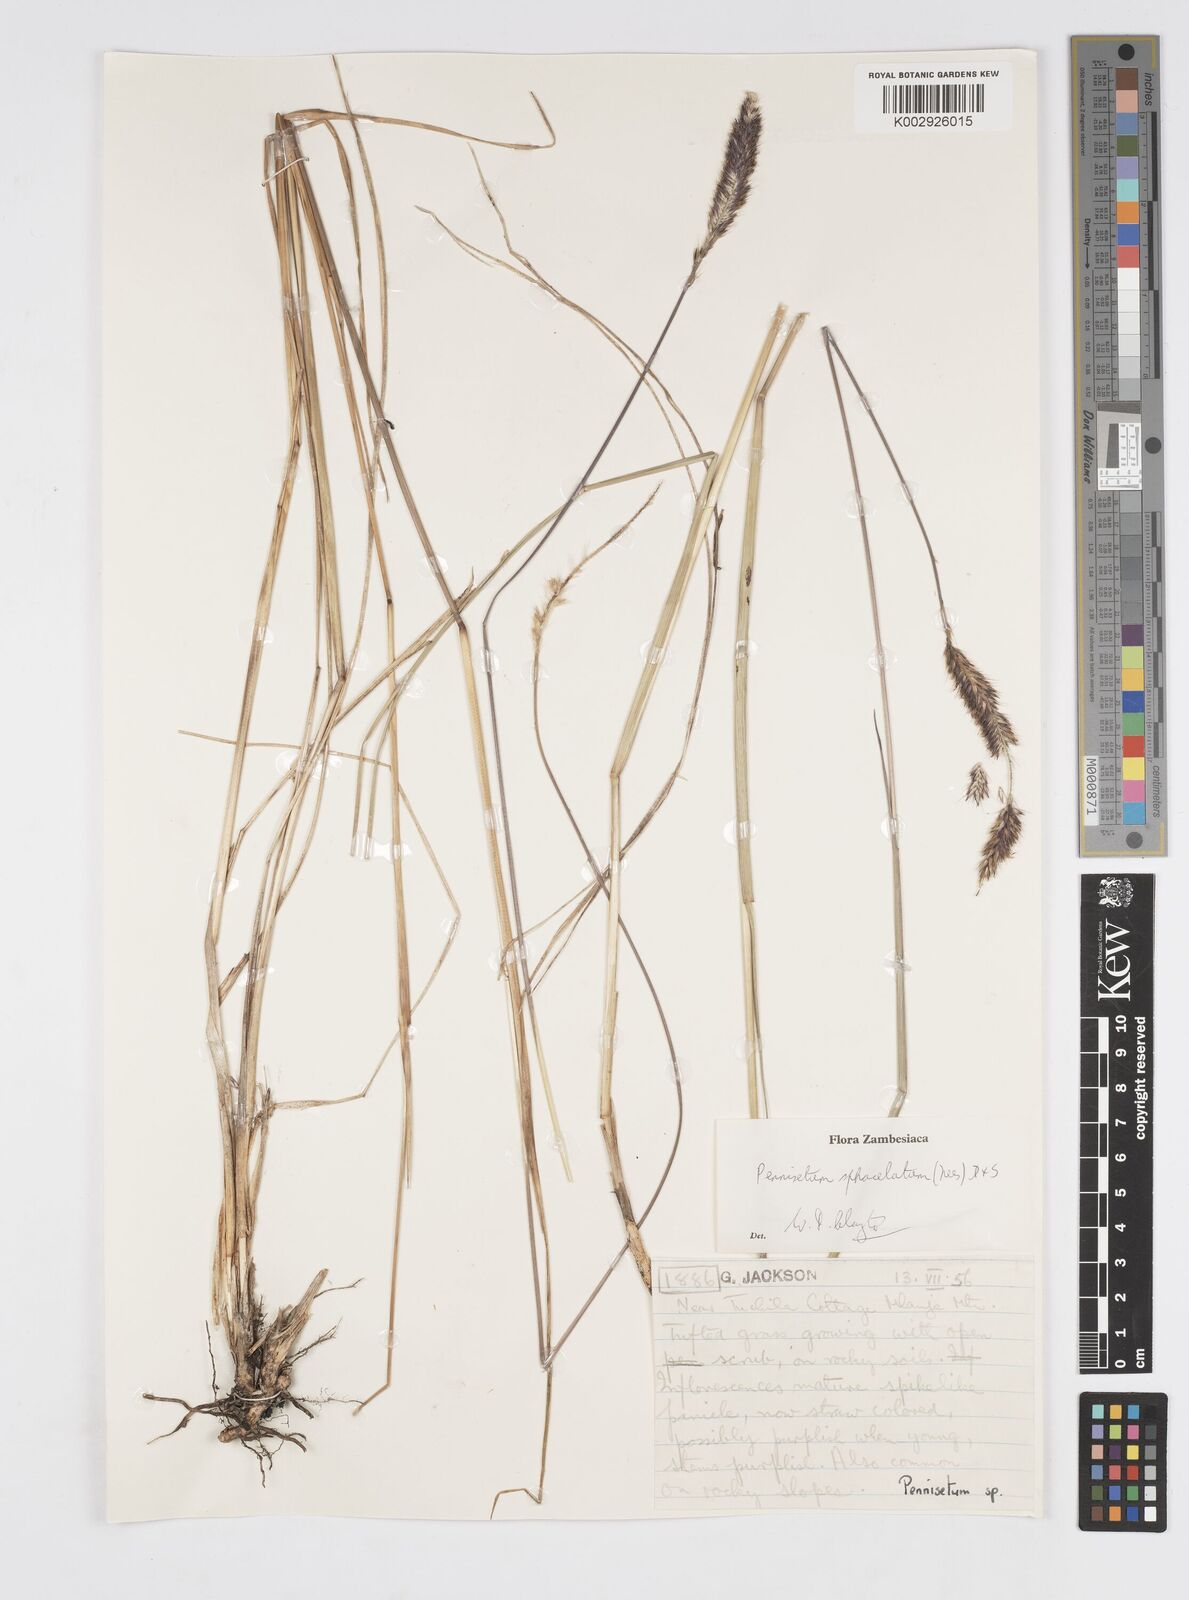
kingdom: Plantae
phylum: Tracheophyta
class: Liliopsida
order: Poales
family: Poaceae
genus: Cenchrus
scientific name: Cenchrus sphacelatus
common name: Bulgras
